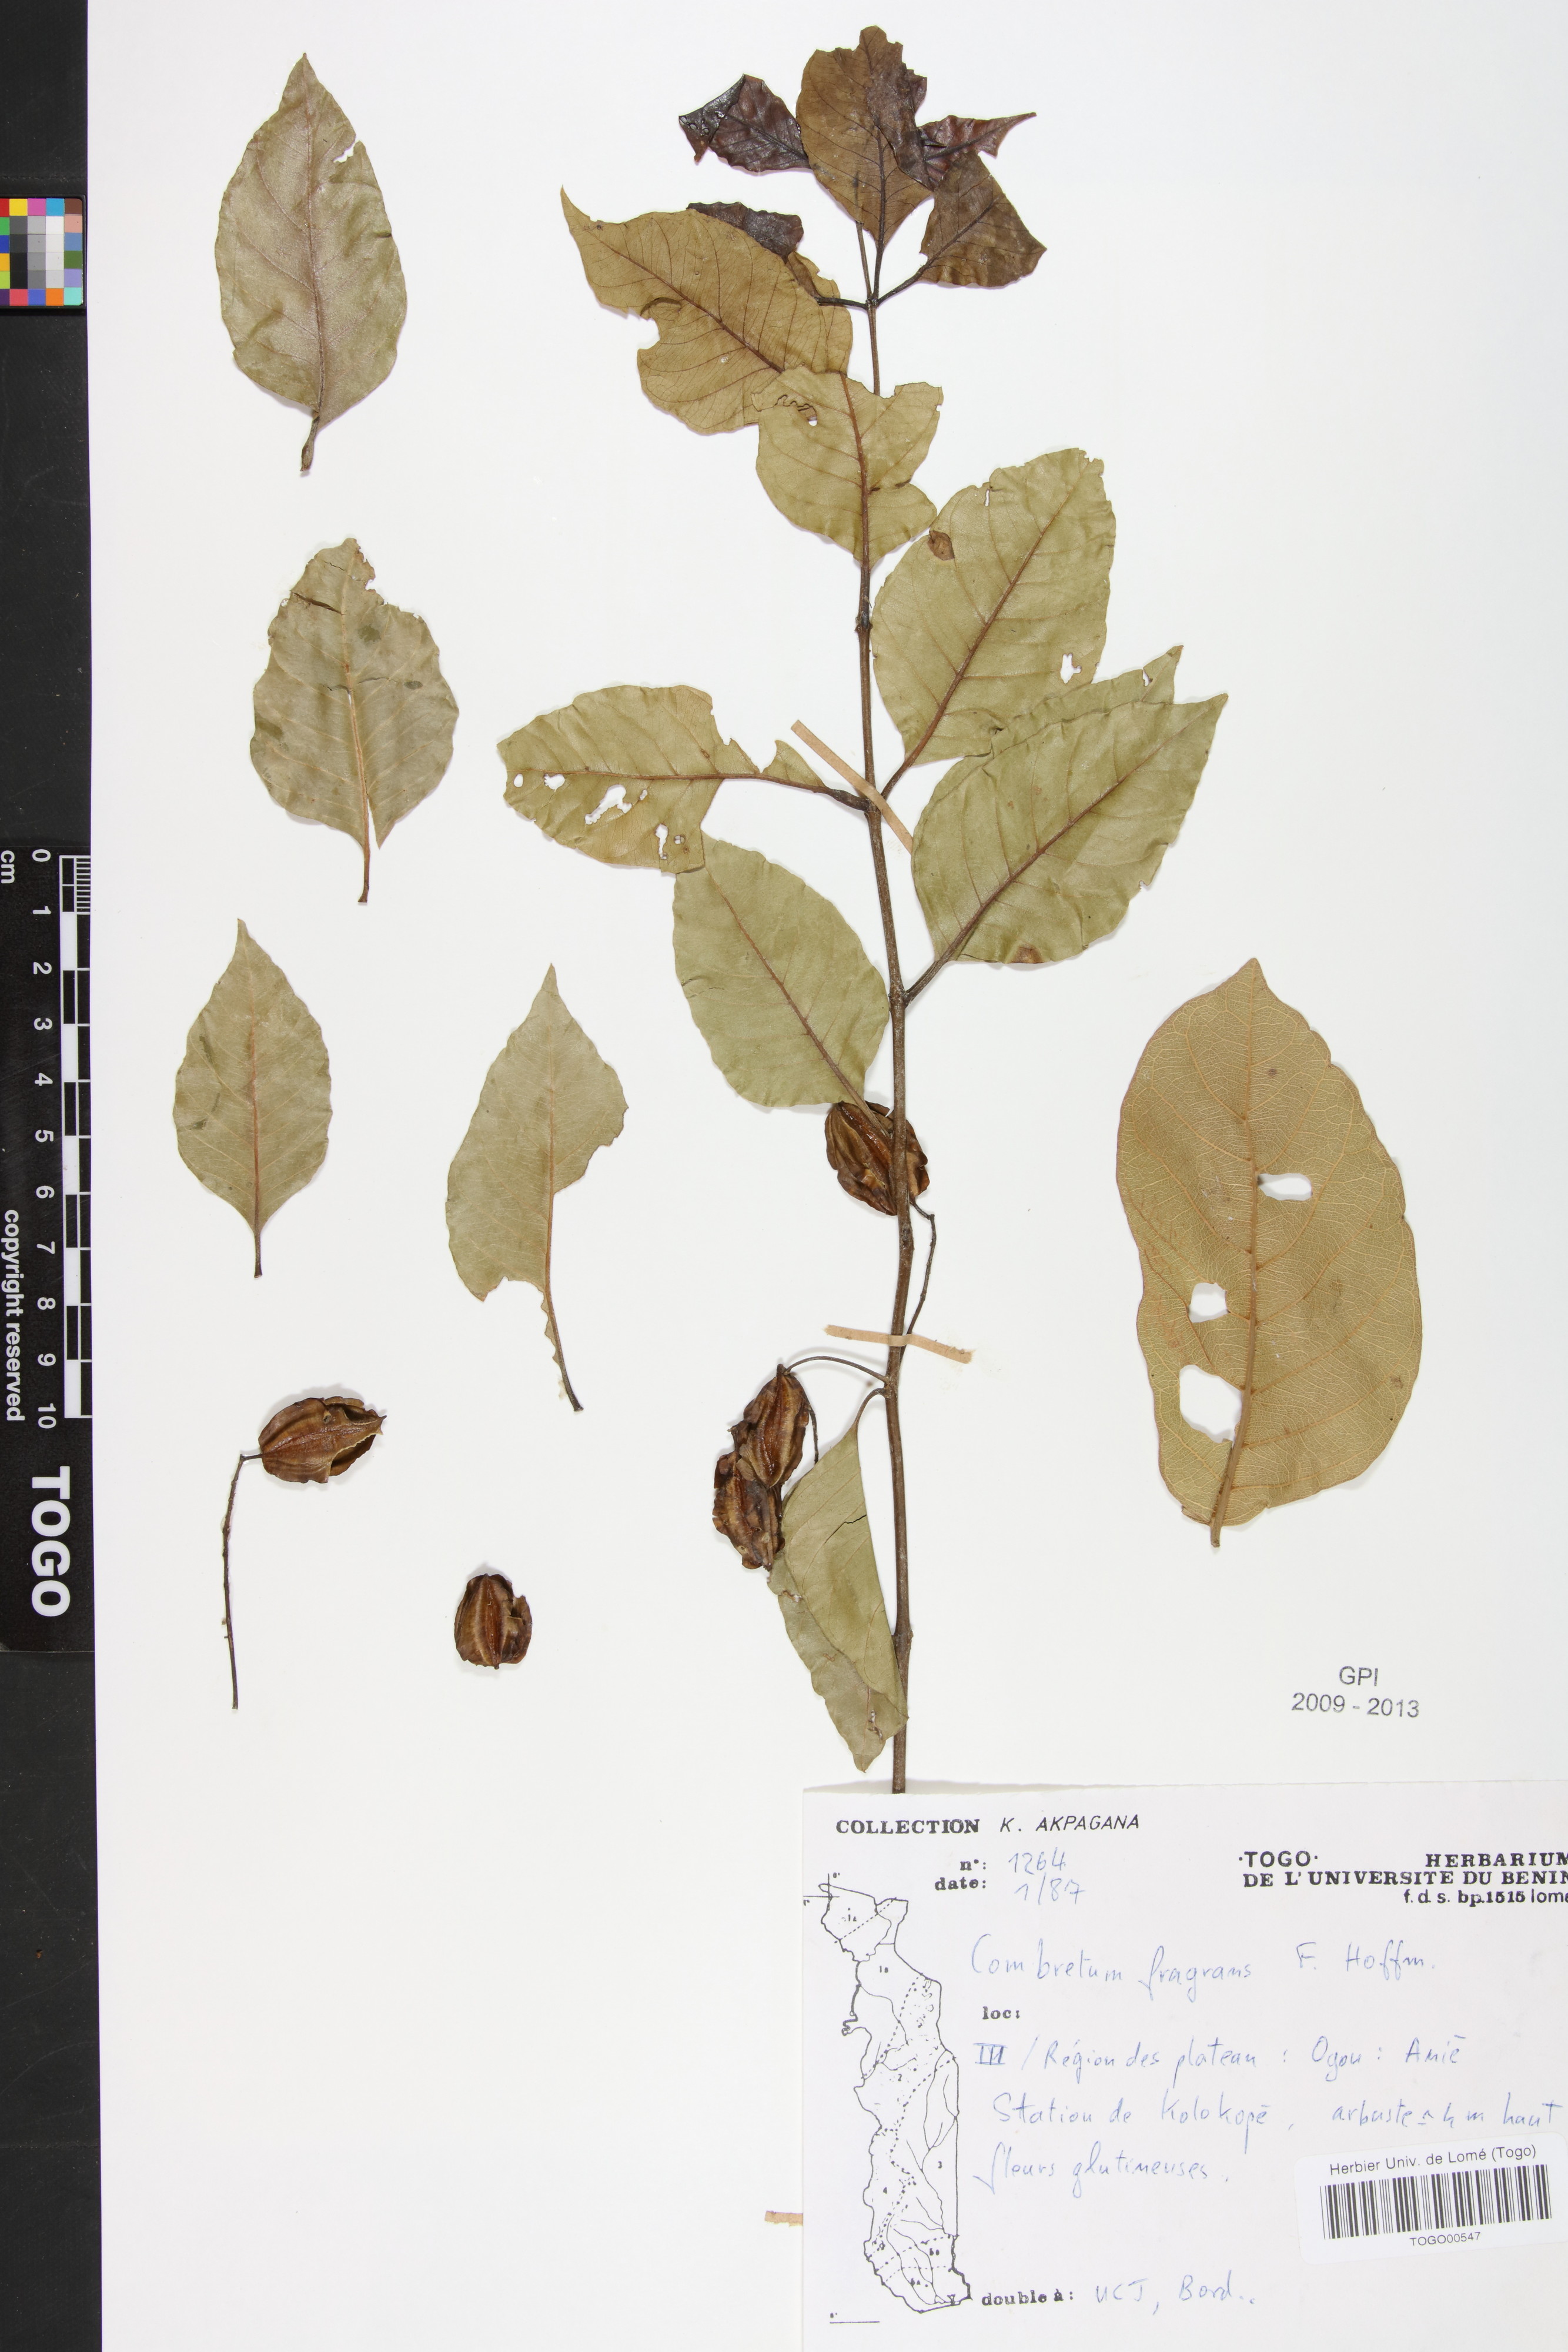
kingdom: Plantae
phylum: Tracheophyta
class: Magnoliopsida
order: Myrtales
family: Combretaceae
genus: Combretum
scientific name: Combretum adenogonium
